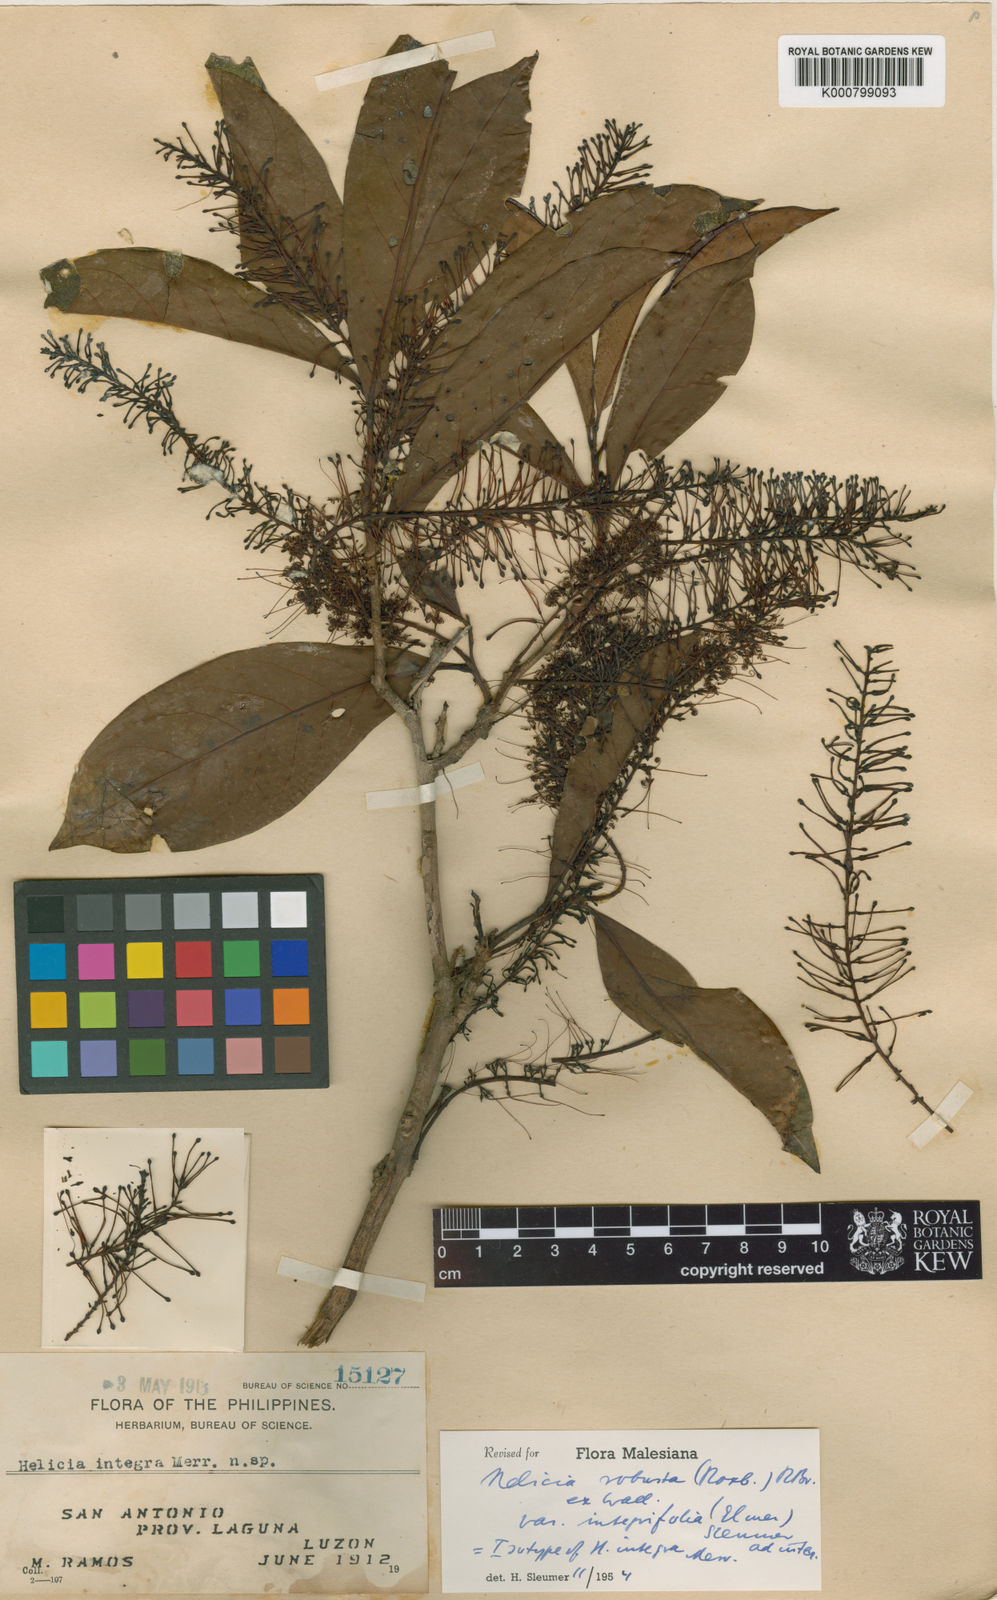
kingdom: Plantae
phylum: Tracheophyta
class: Magnoliopsida
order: Proteales
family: Proteaceae
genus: Helicia
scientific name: Helicia robusta
